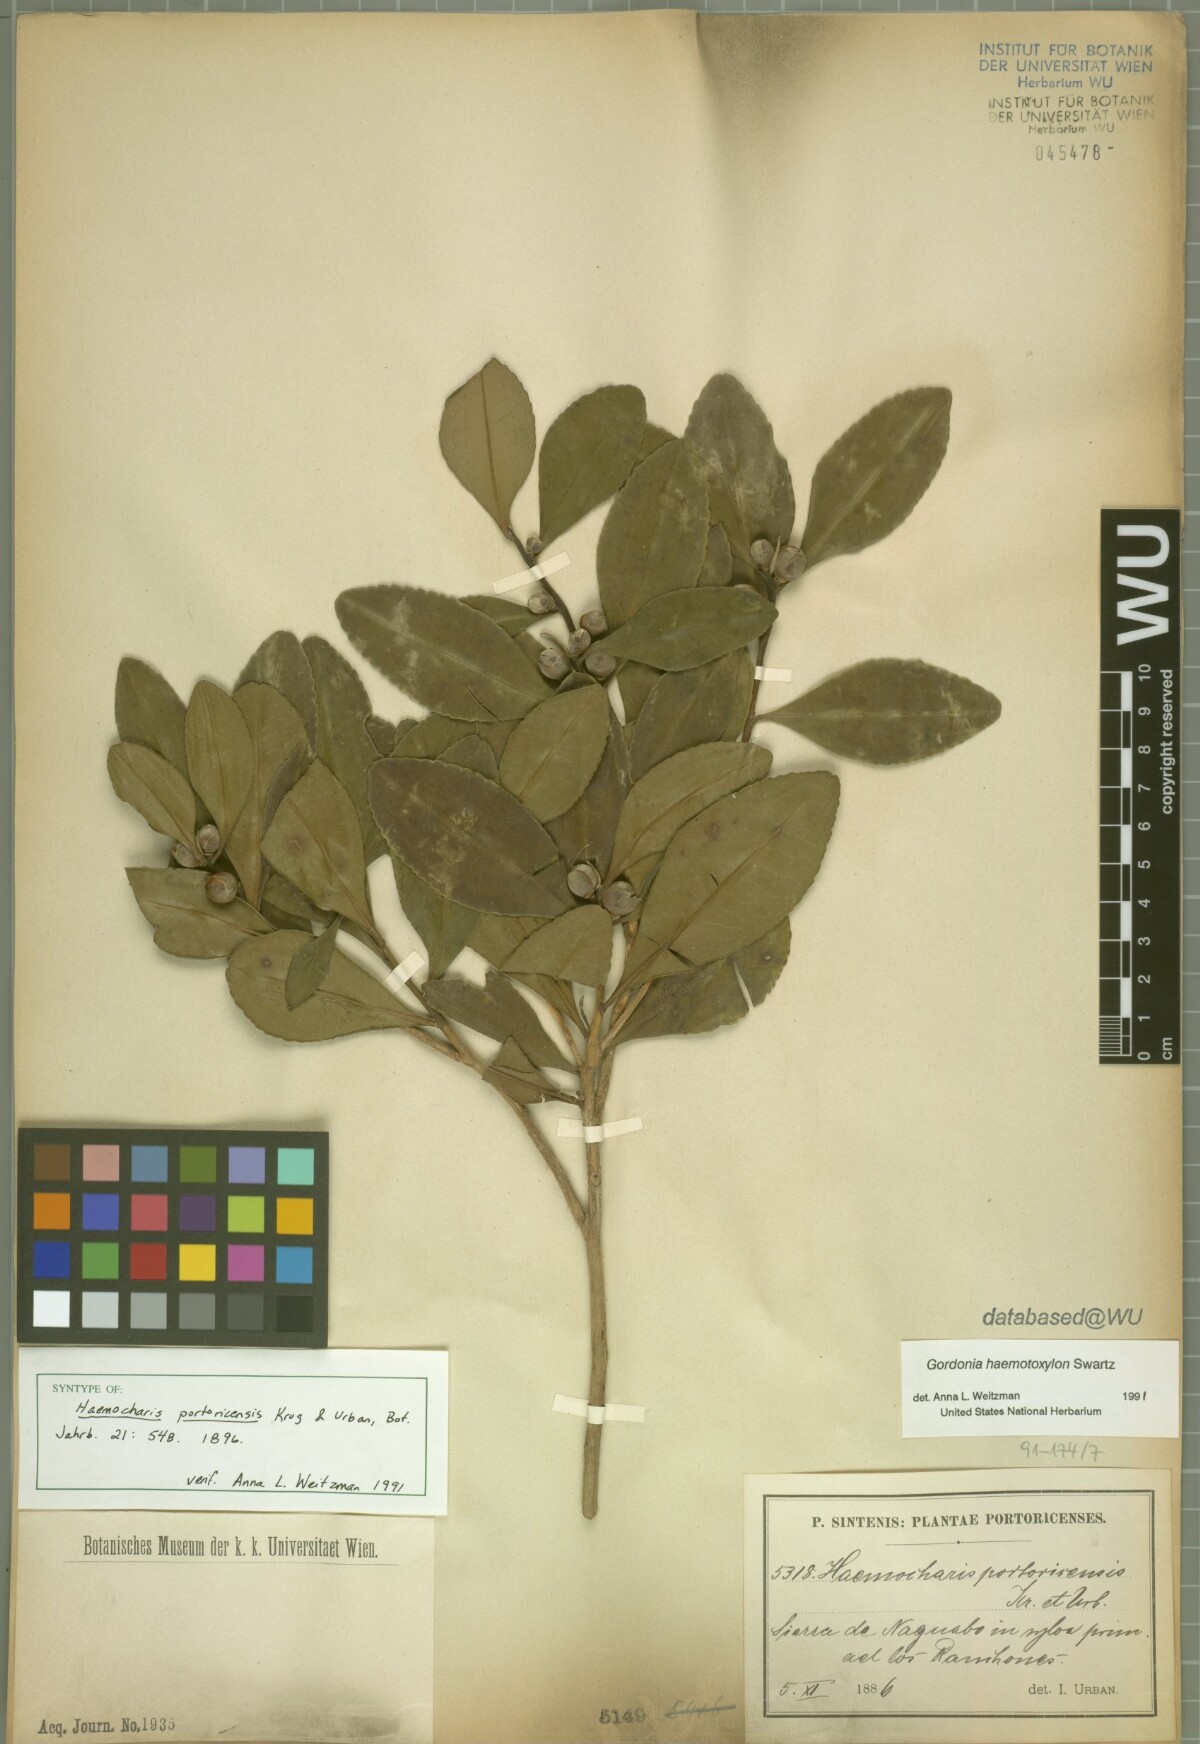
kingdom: Plantae
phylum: Tracheophyta
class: Magnoliopsida
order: Ericales
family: Theaceae
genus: Gordonia
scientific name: Gordonia portoricensis
